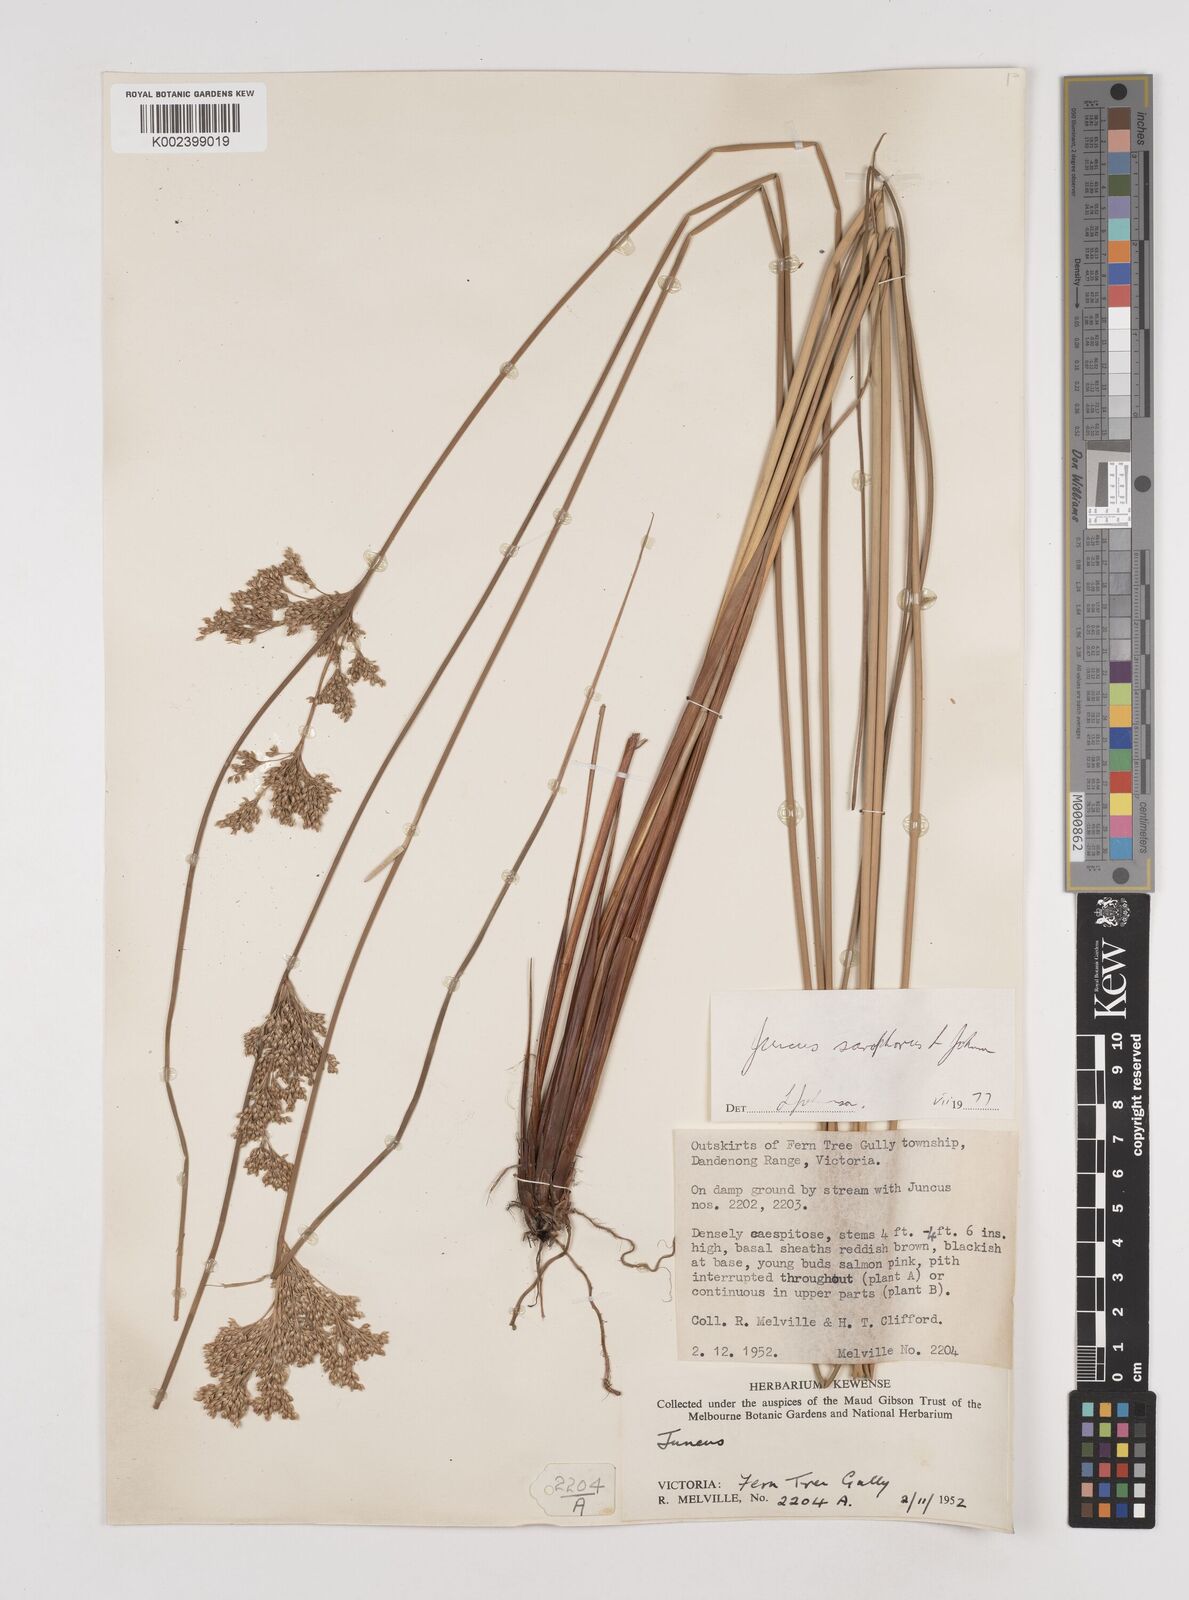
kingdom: Plantae
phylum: Tracheophyta
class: Liliopsida
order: Poales
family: Juncaceae
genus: Juncus
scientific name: Juncus sarophorus
